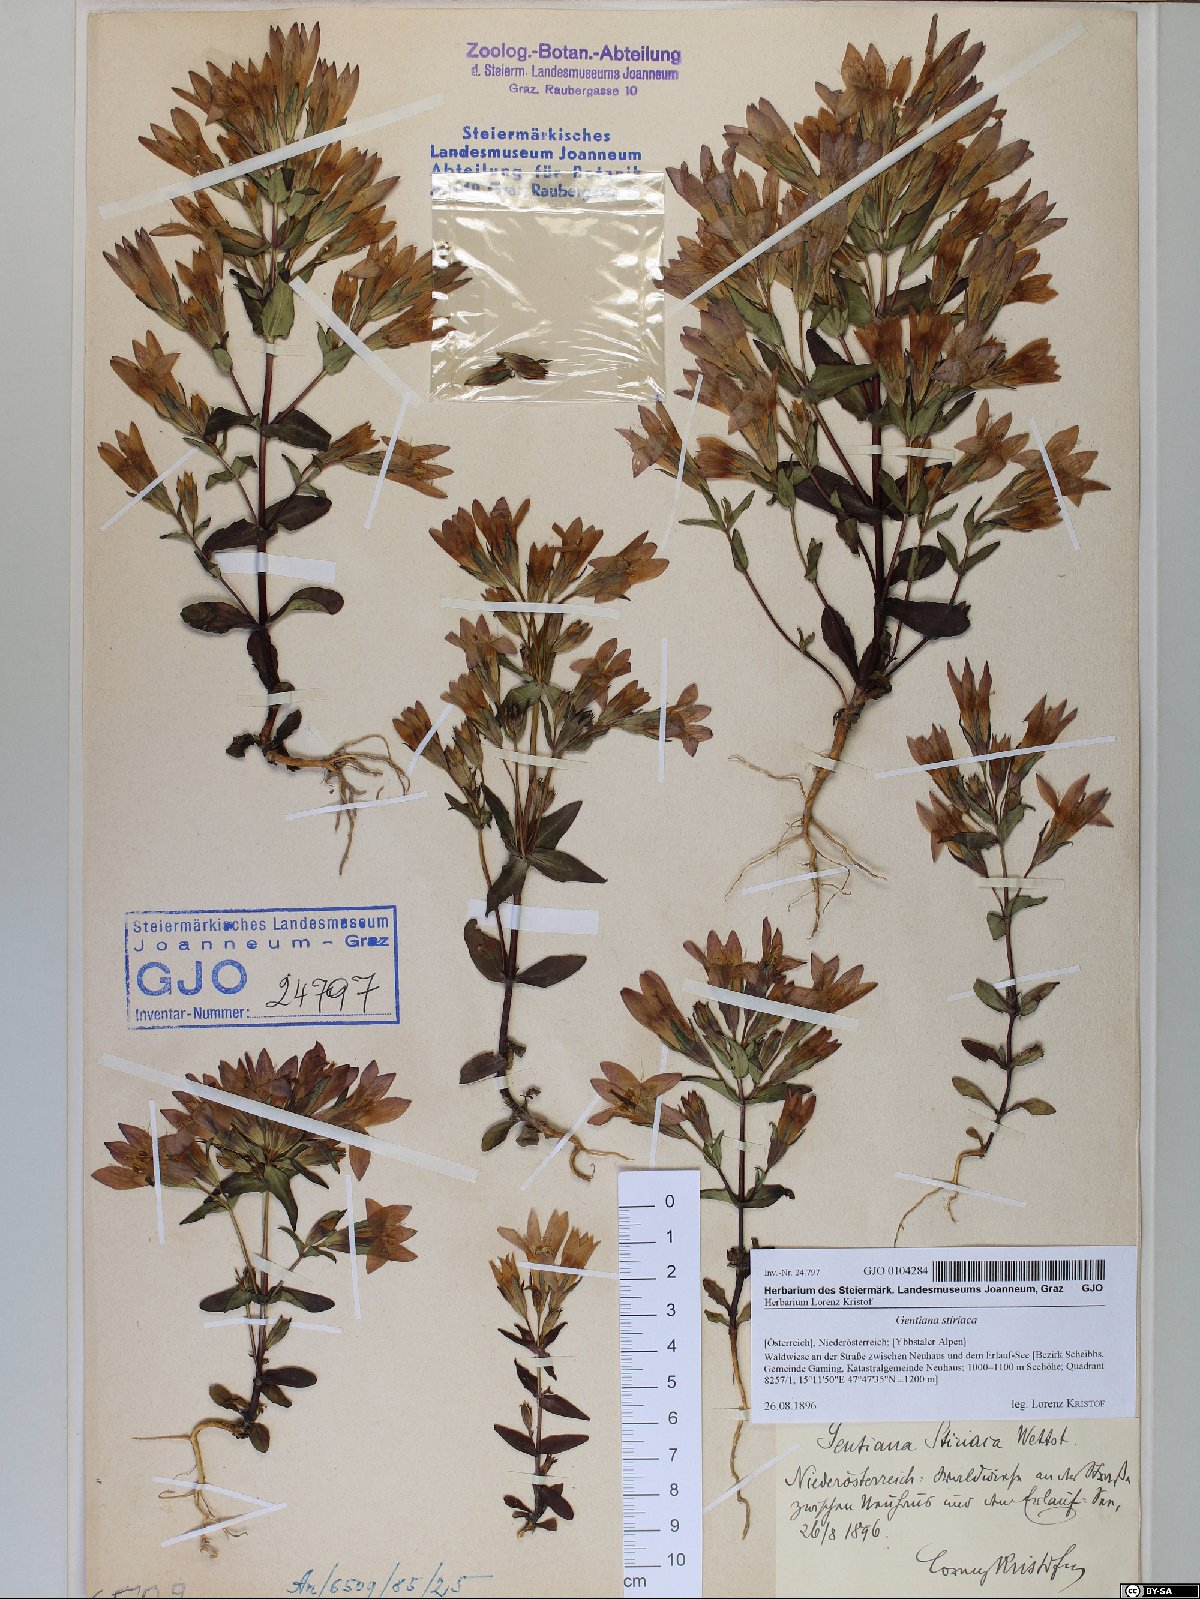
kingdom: Plantae
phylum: Tracheophyta
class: Magnoliopsida
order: Gentianales
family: Gentianaceae
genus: Gentianella
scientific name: Gentianella rhaetica
